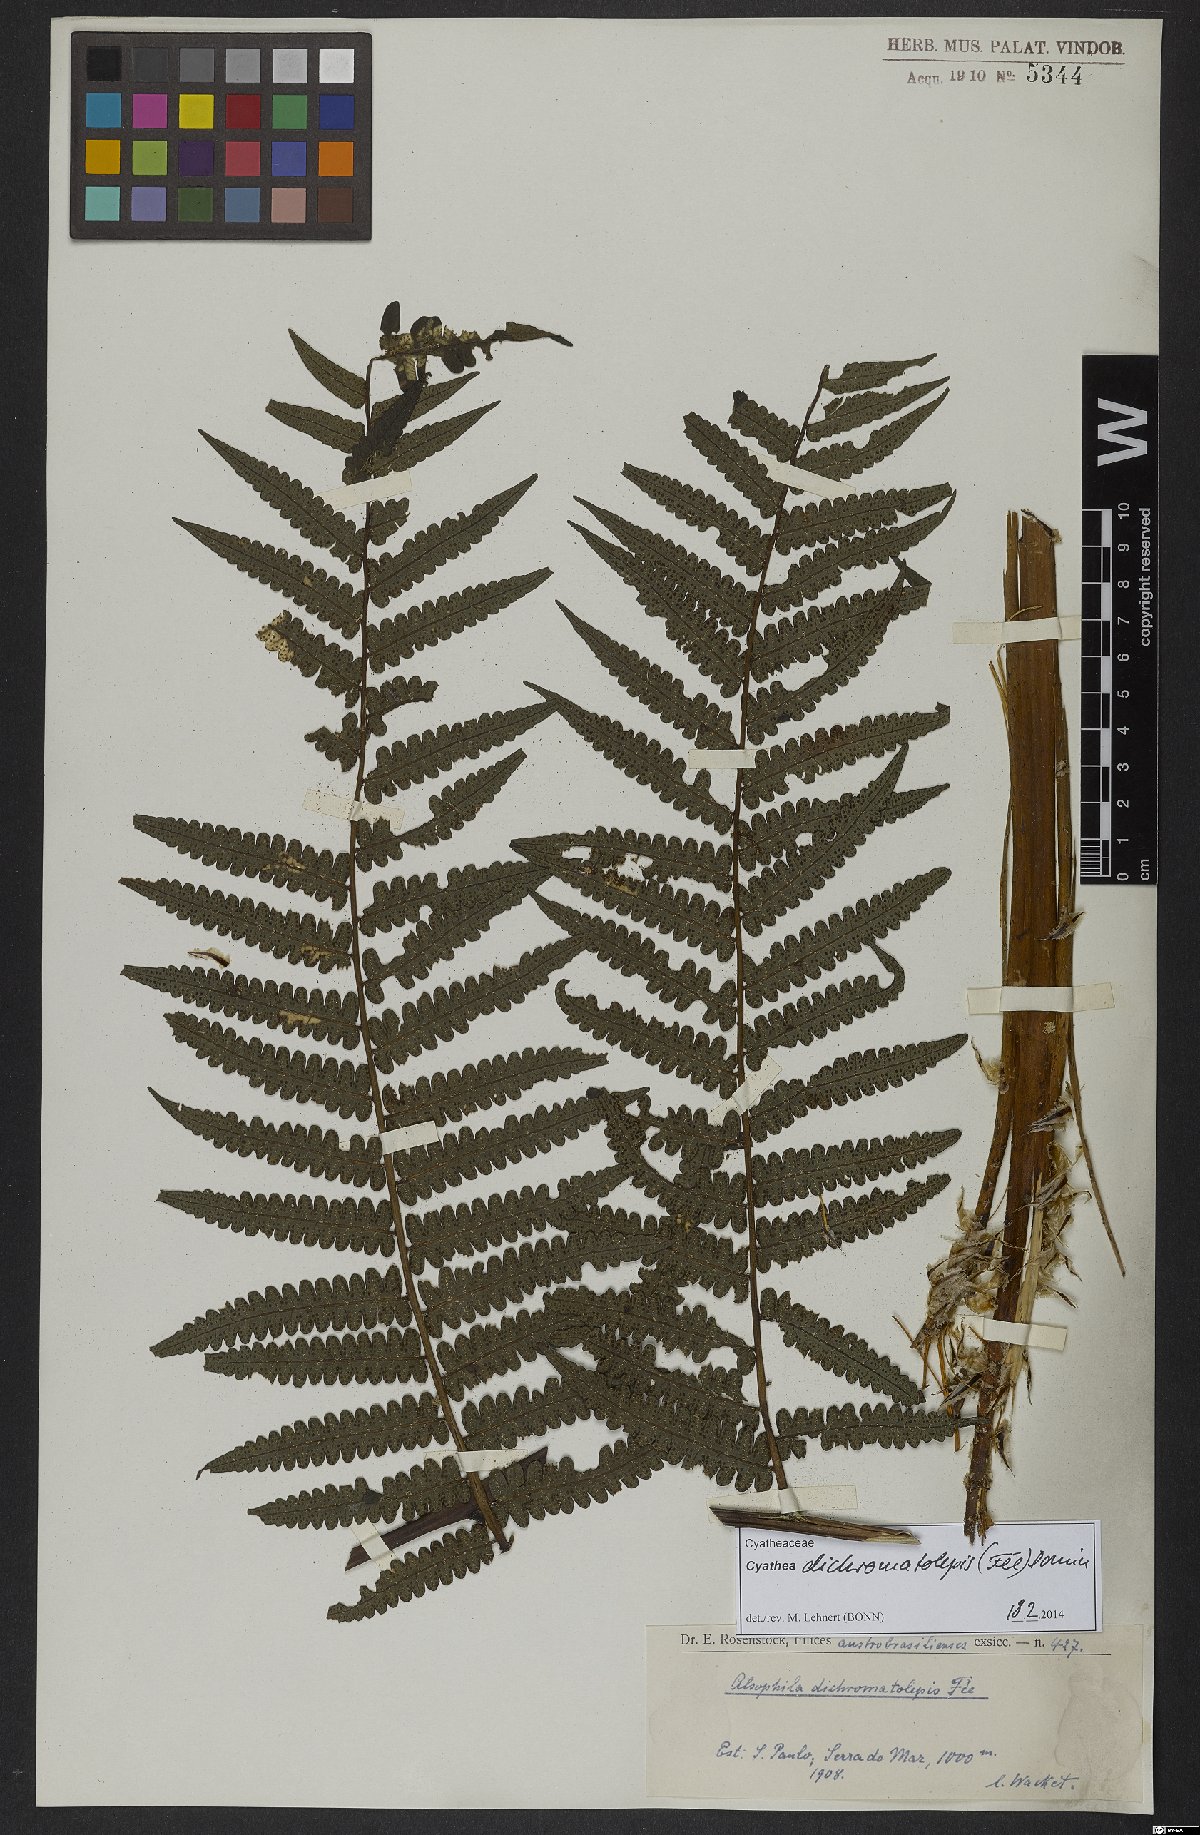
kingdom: Plantae
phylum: Tracheophyta
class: Polypodiopsida
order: Cyatheales
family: Cyatheaceae
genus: Cyathea
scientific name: Cyathea dichromatolepis
